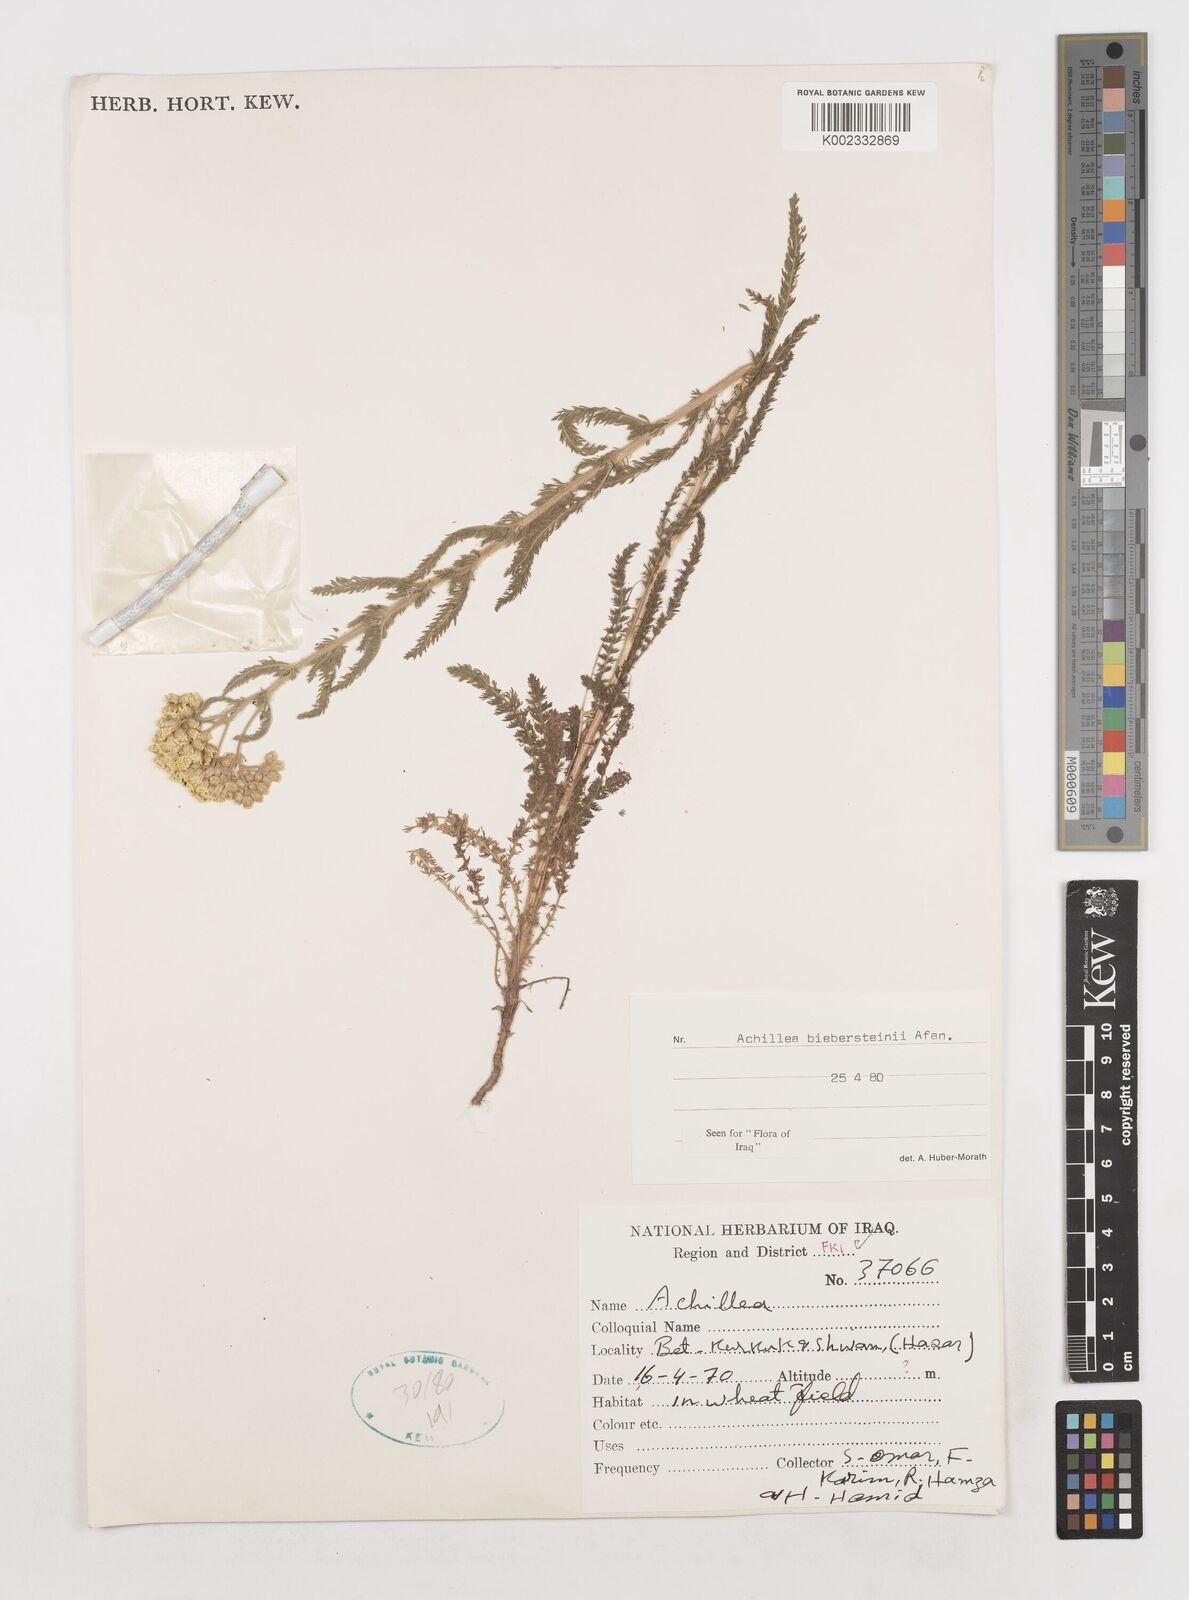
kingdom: Plantae
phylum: Tracheophyta
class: Magnoliopsida
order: Asterales
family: Asteraceae
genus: Achillea
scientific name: Achillea arabica
